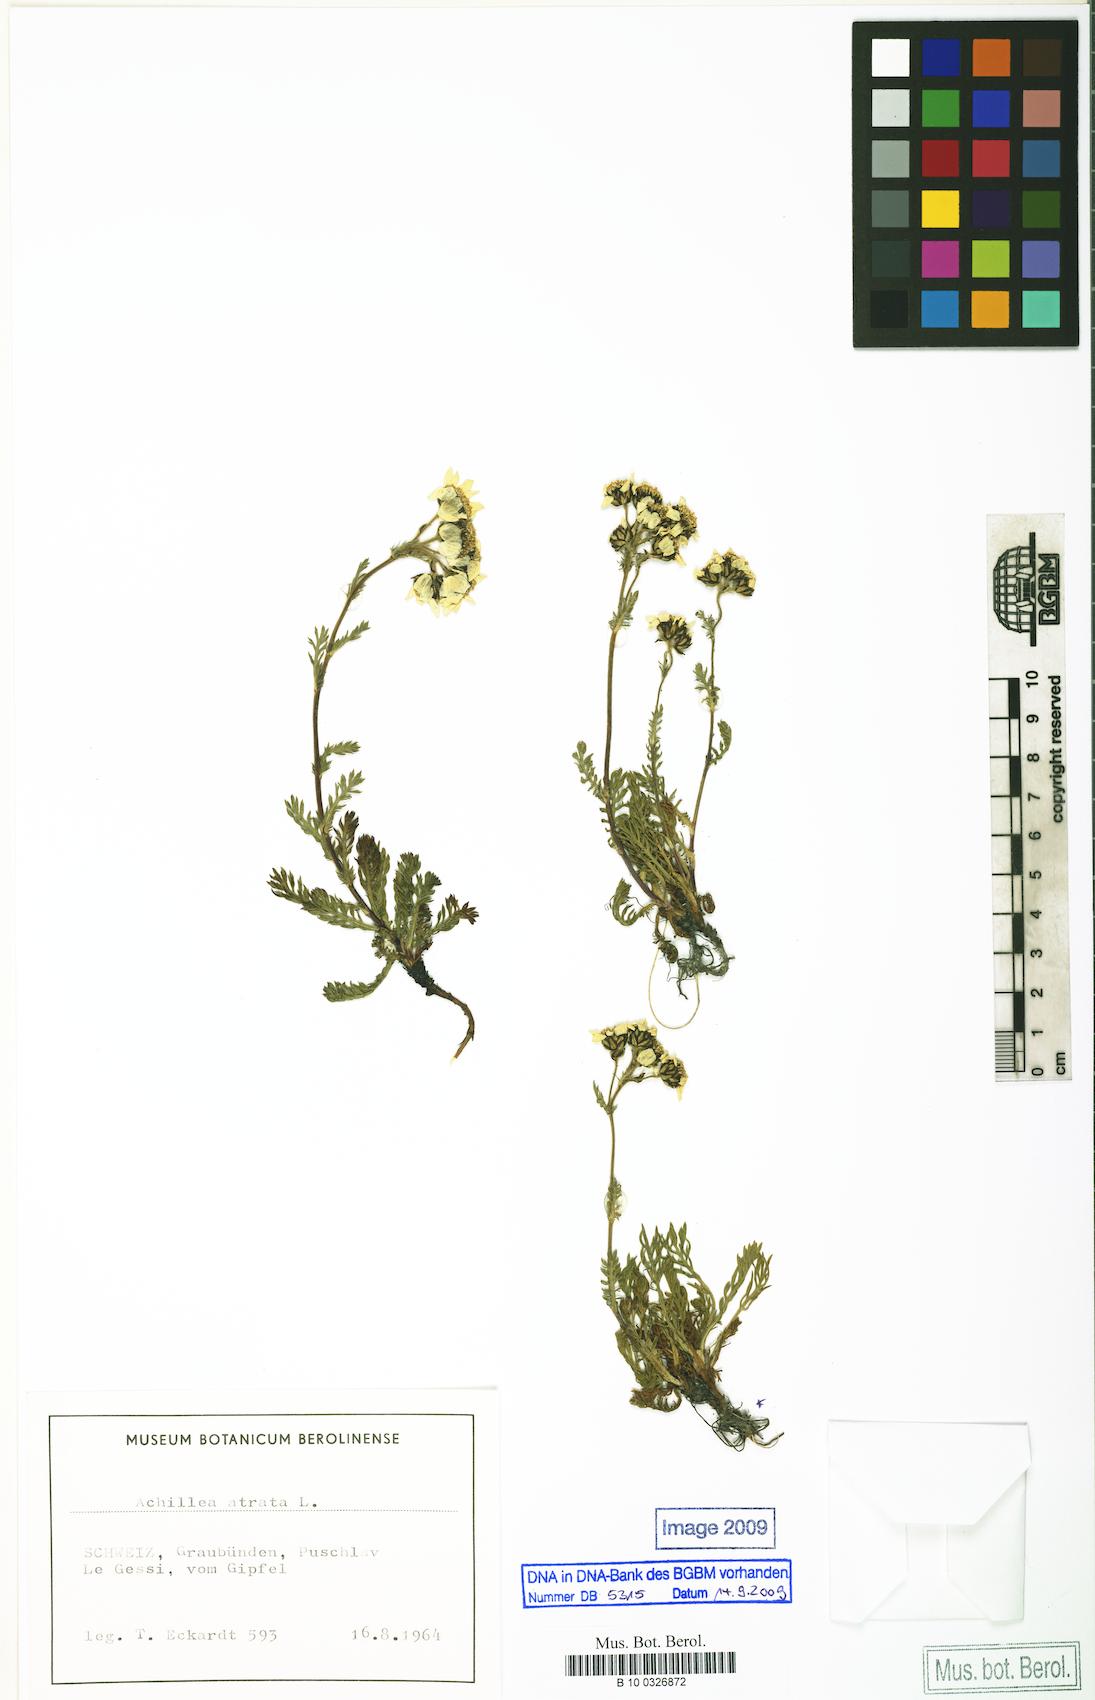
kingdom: Plantae
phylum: Tracheophyta
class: Magnoliopsida
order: Asterales
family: Asteraceae
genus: Achillea
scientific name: Achillea atrata
